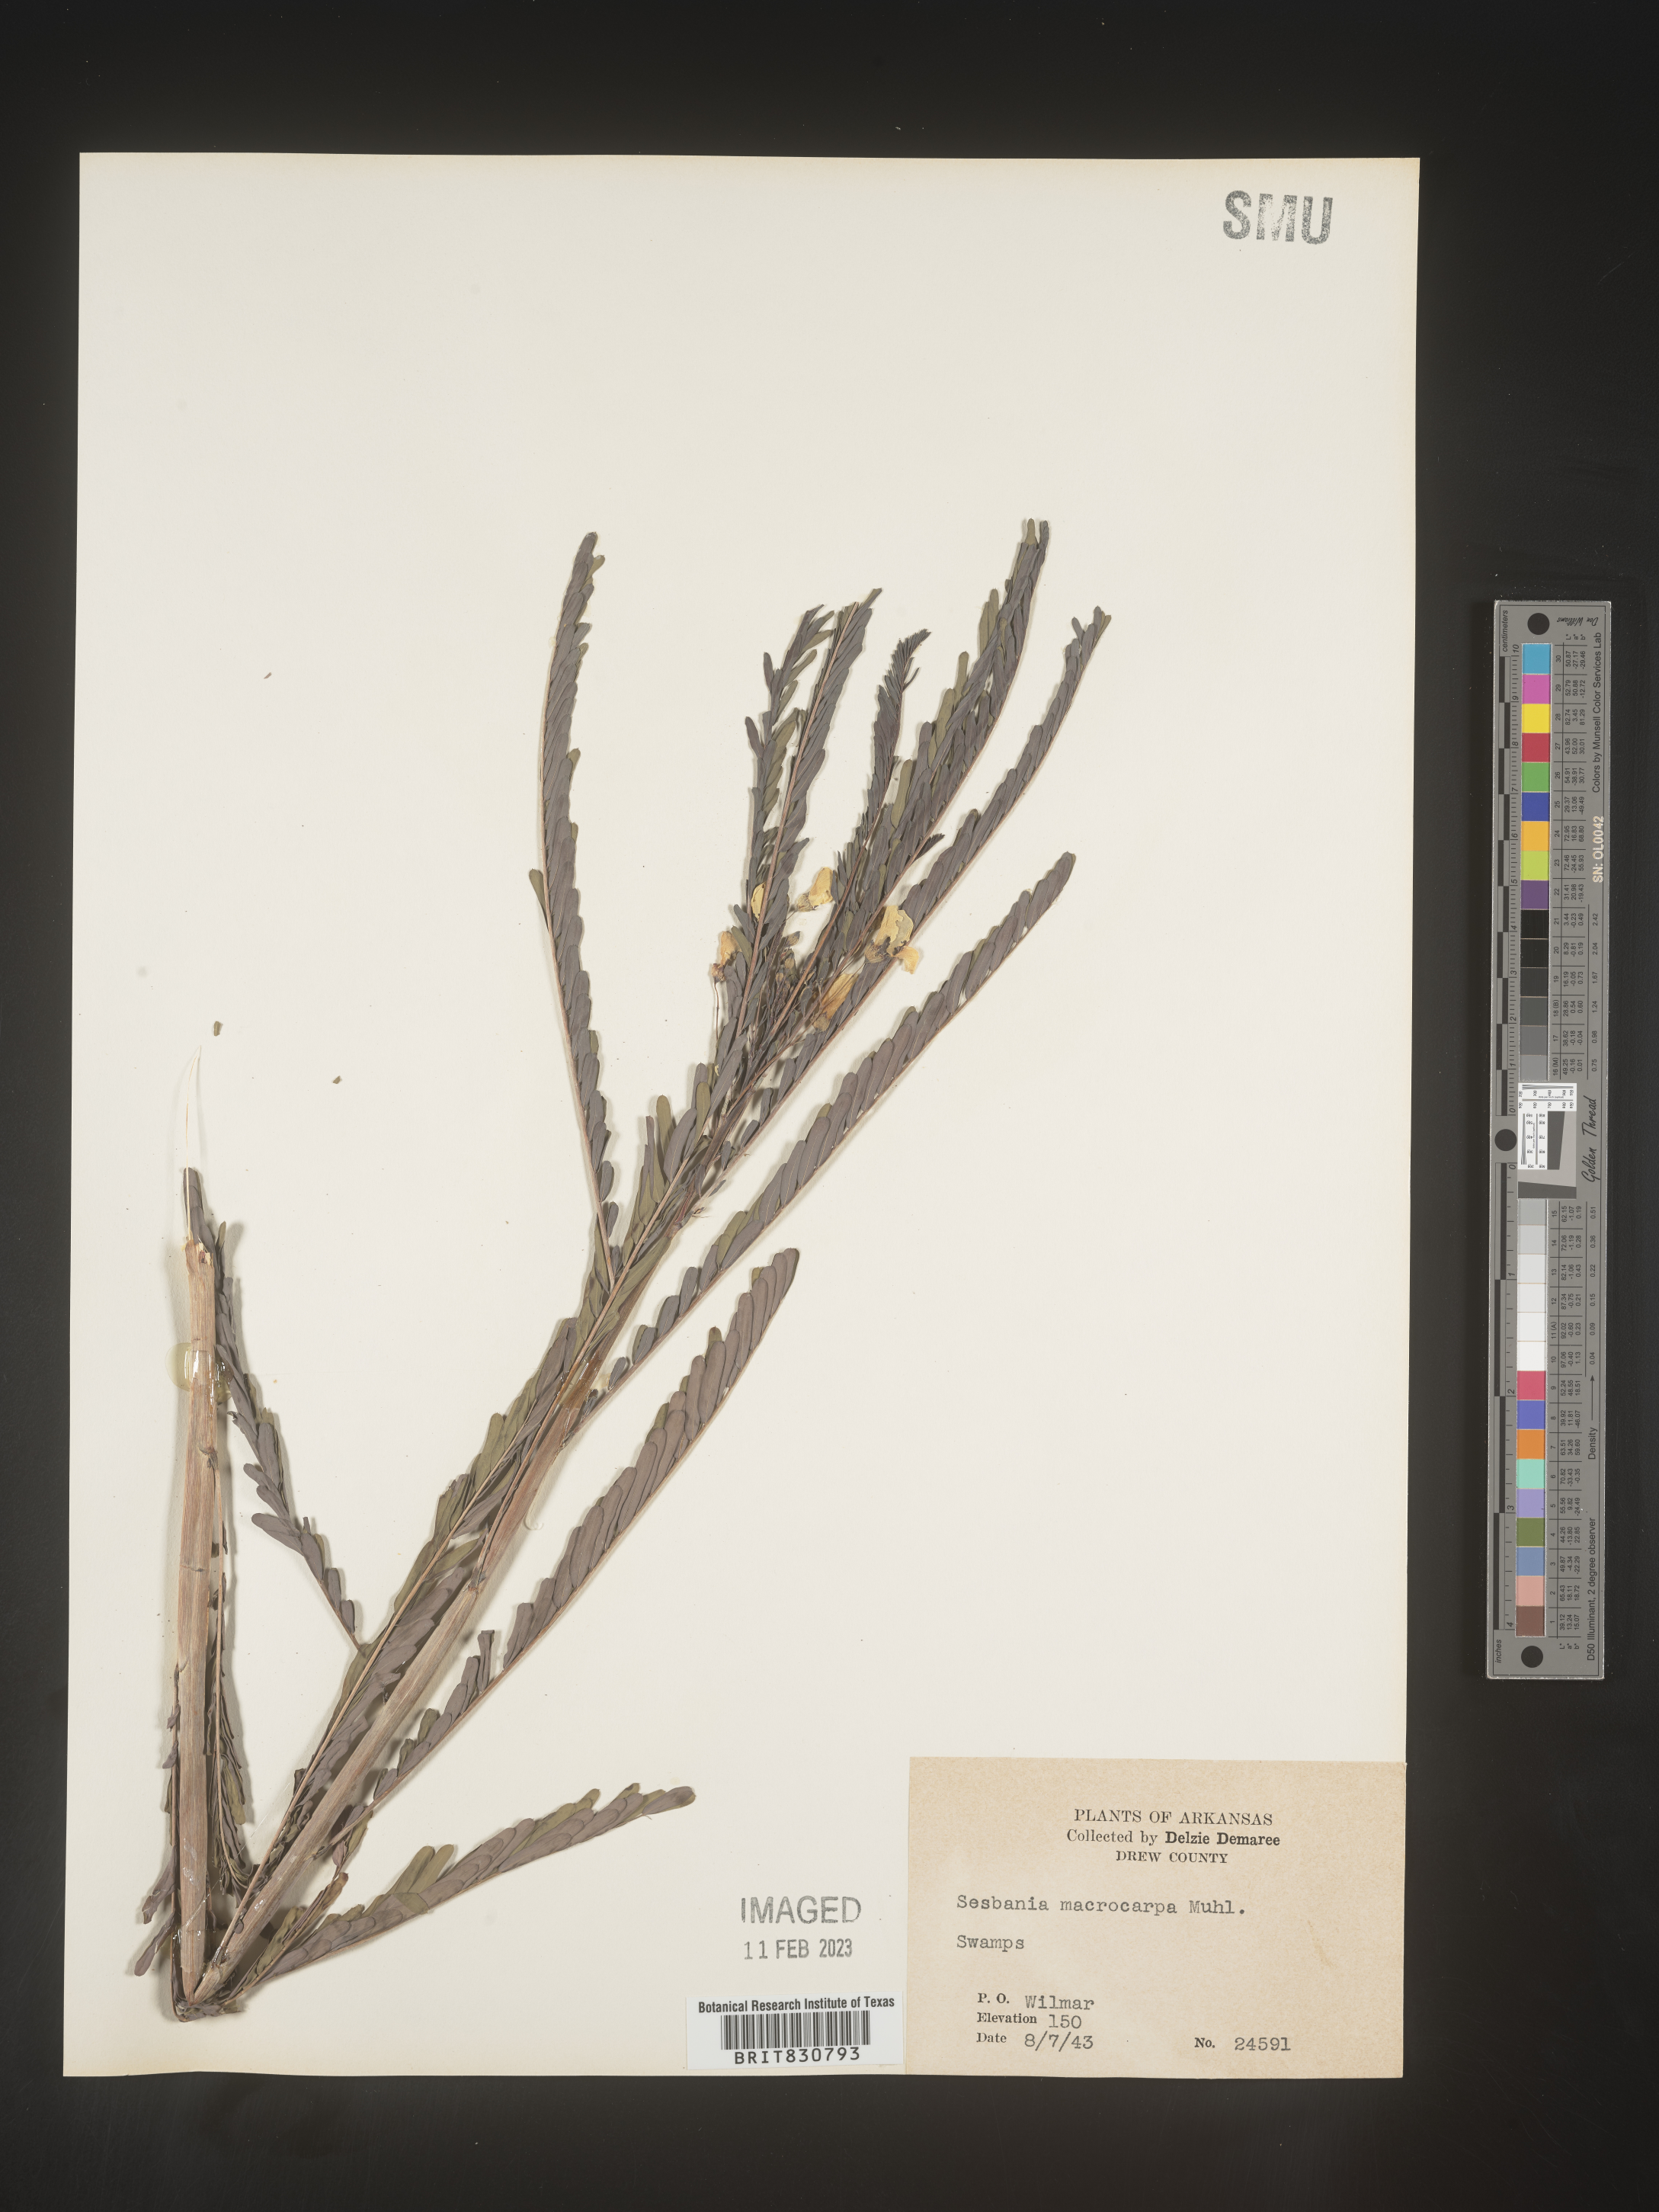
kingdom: Plantae
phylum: Tracheophyta
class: Magnoliopsida
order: Fabales
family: Fabaceae
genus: Sesbania
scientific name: Sesbania vesicaria
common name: Bagpod
